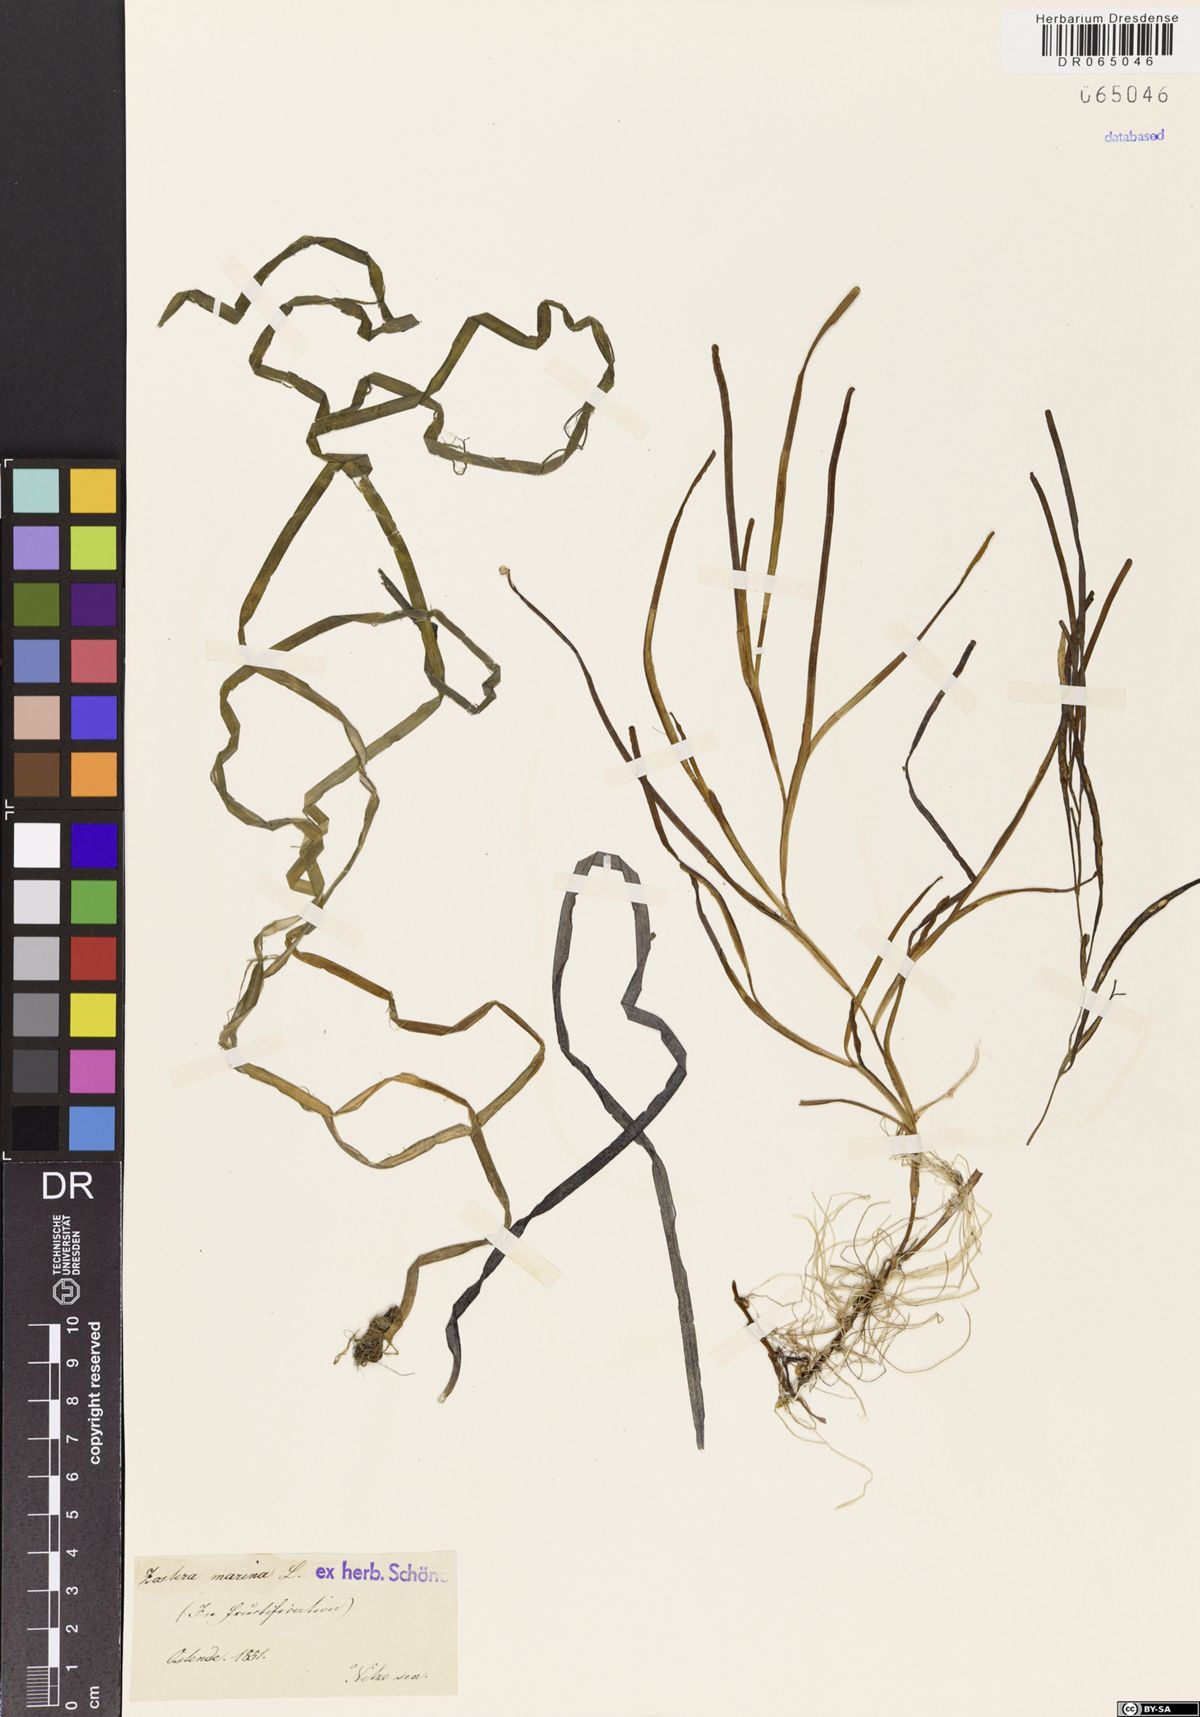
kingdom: Plantae
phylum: Tracheophyta
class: Liliopsida
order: Alismatales
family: Zosteraceae
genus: Zostera
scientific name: Zostera marina
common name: Eelgrass
